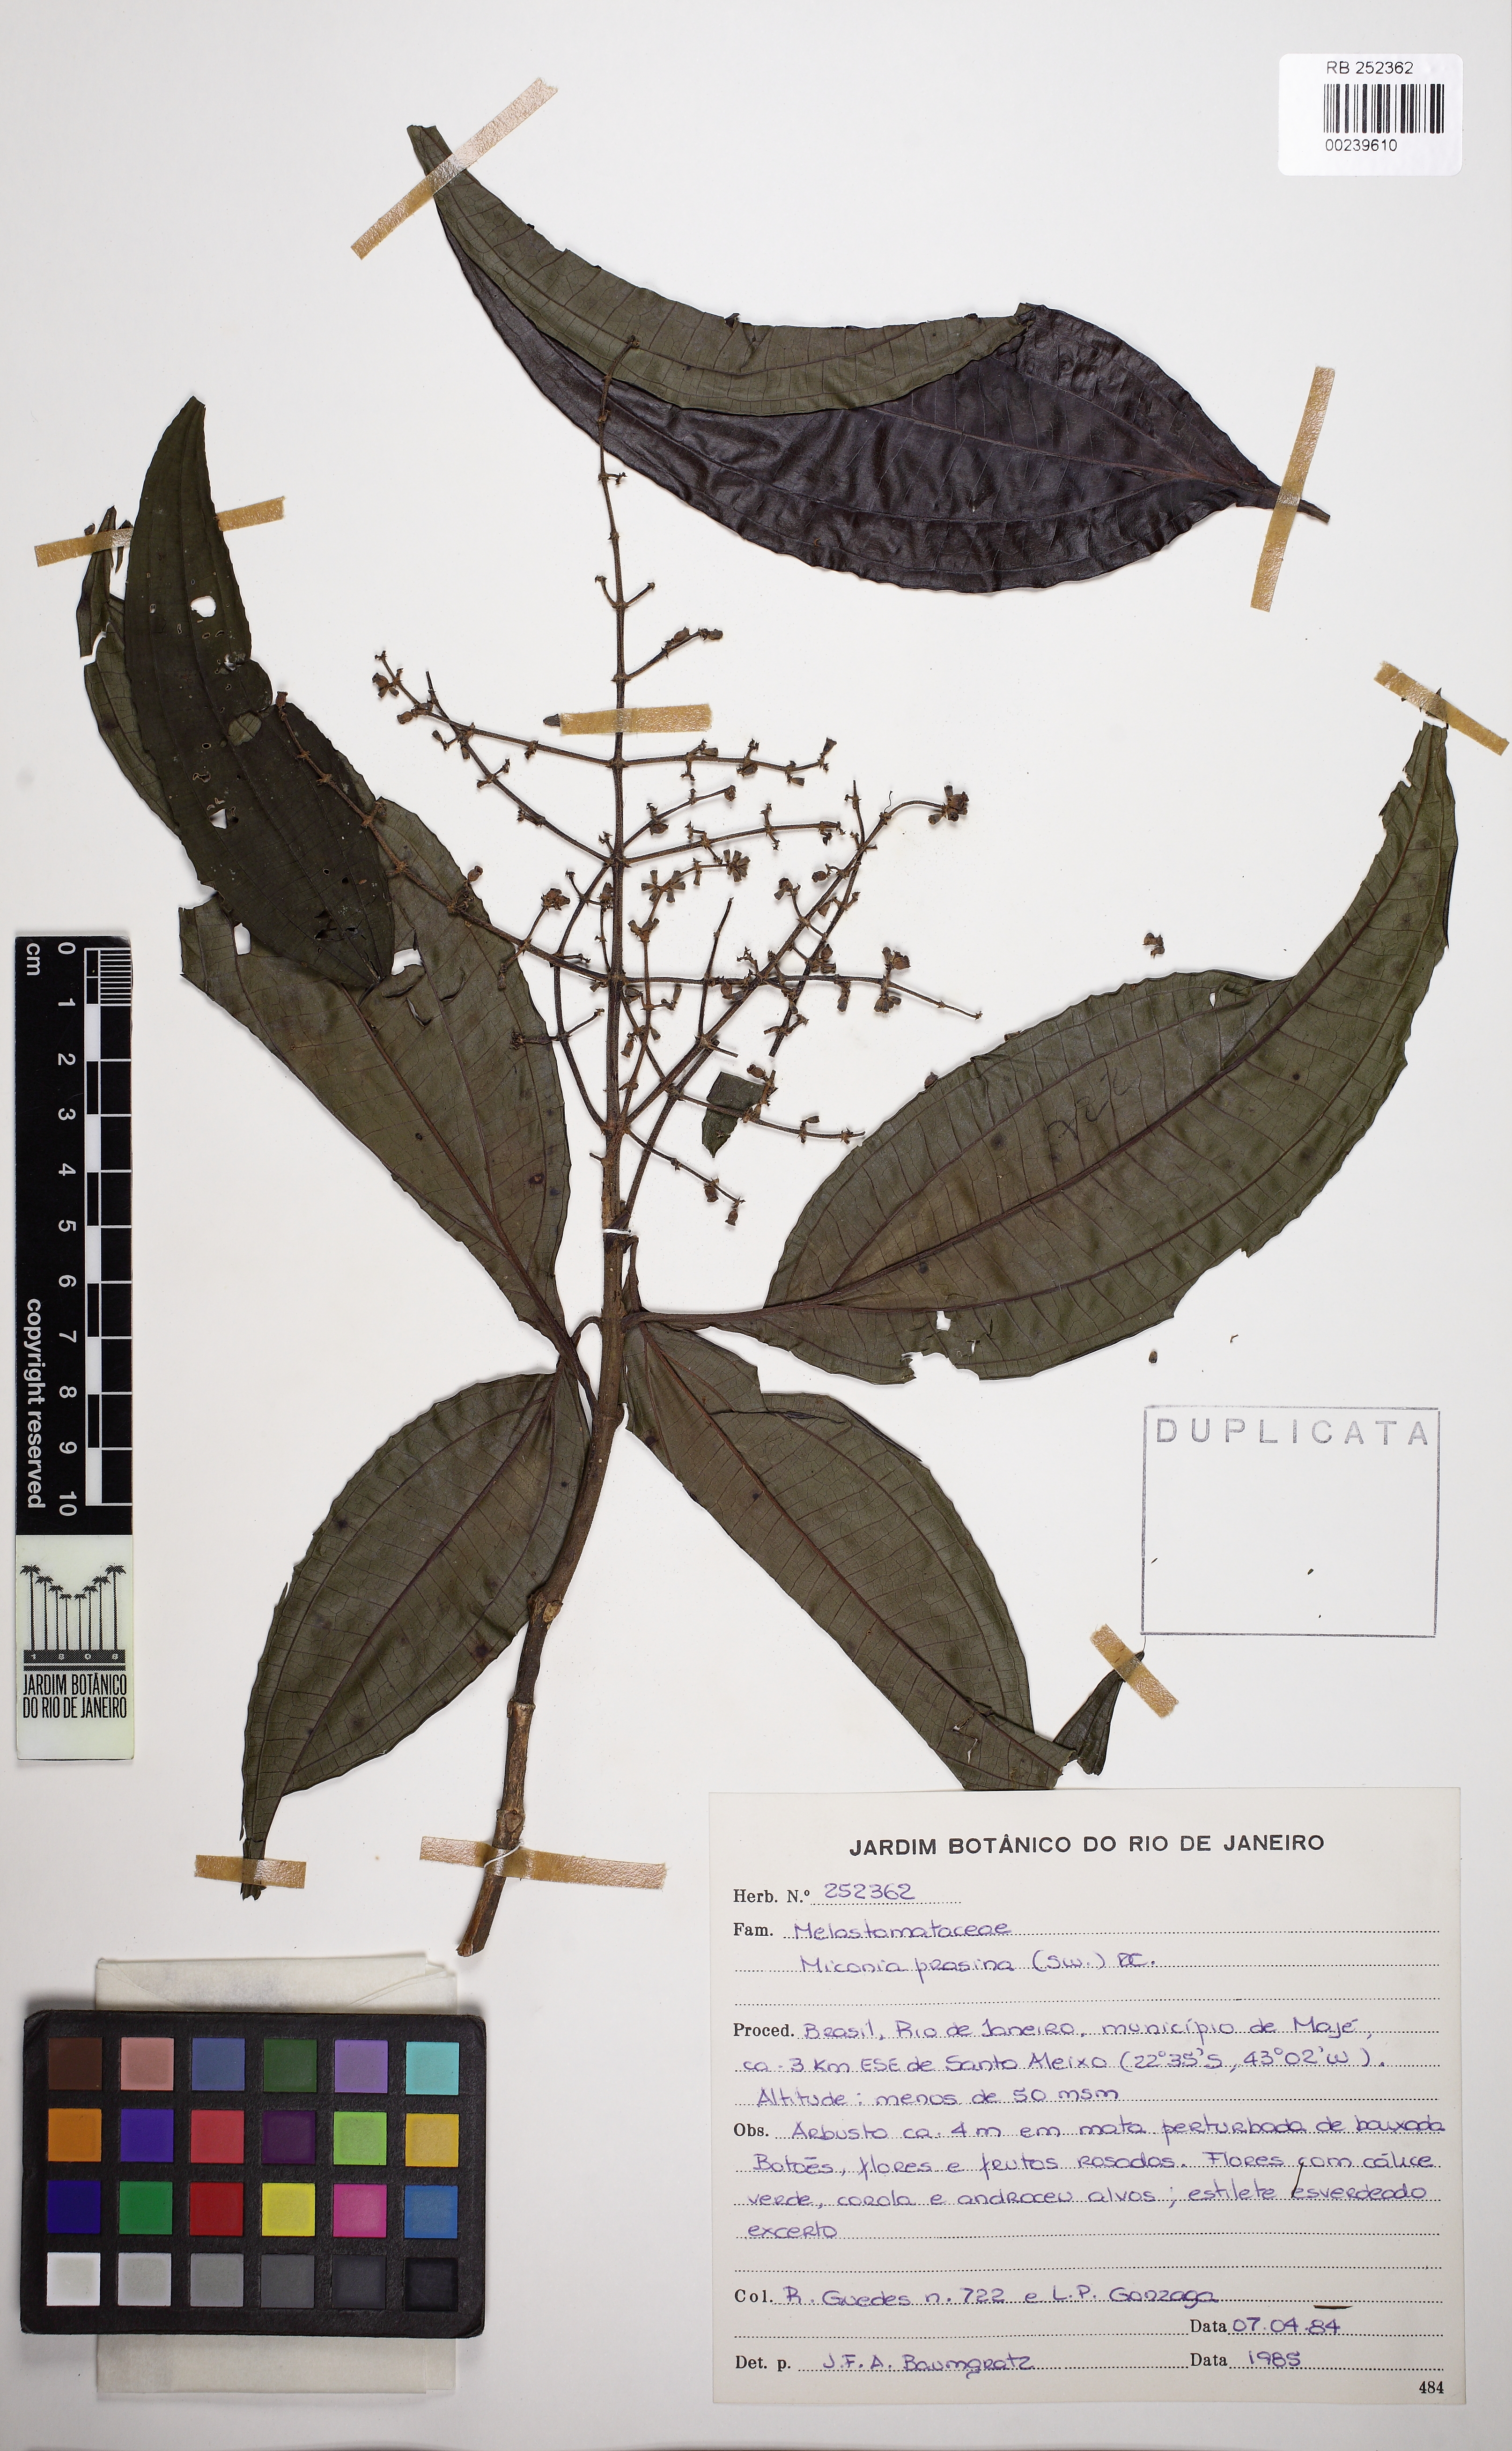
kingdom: Plantae
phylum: Tracheophyta
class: Magnoliopsida
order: Myrtales
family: Melastomataceae
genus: Miconia
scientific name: Miconia prasina
